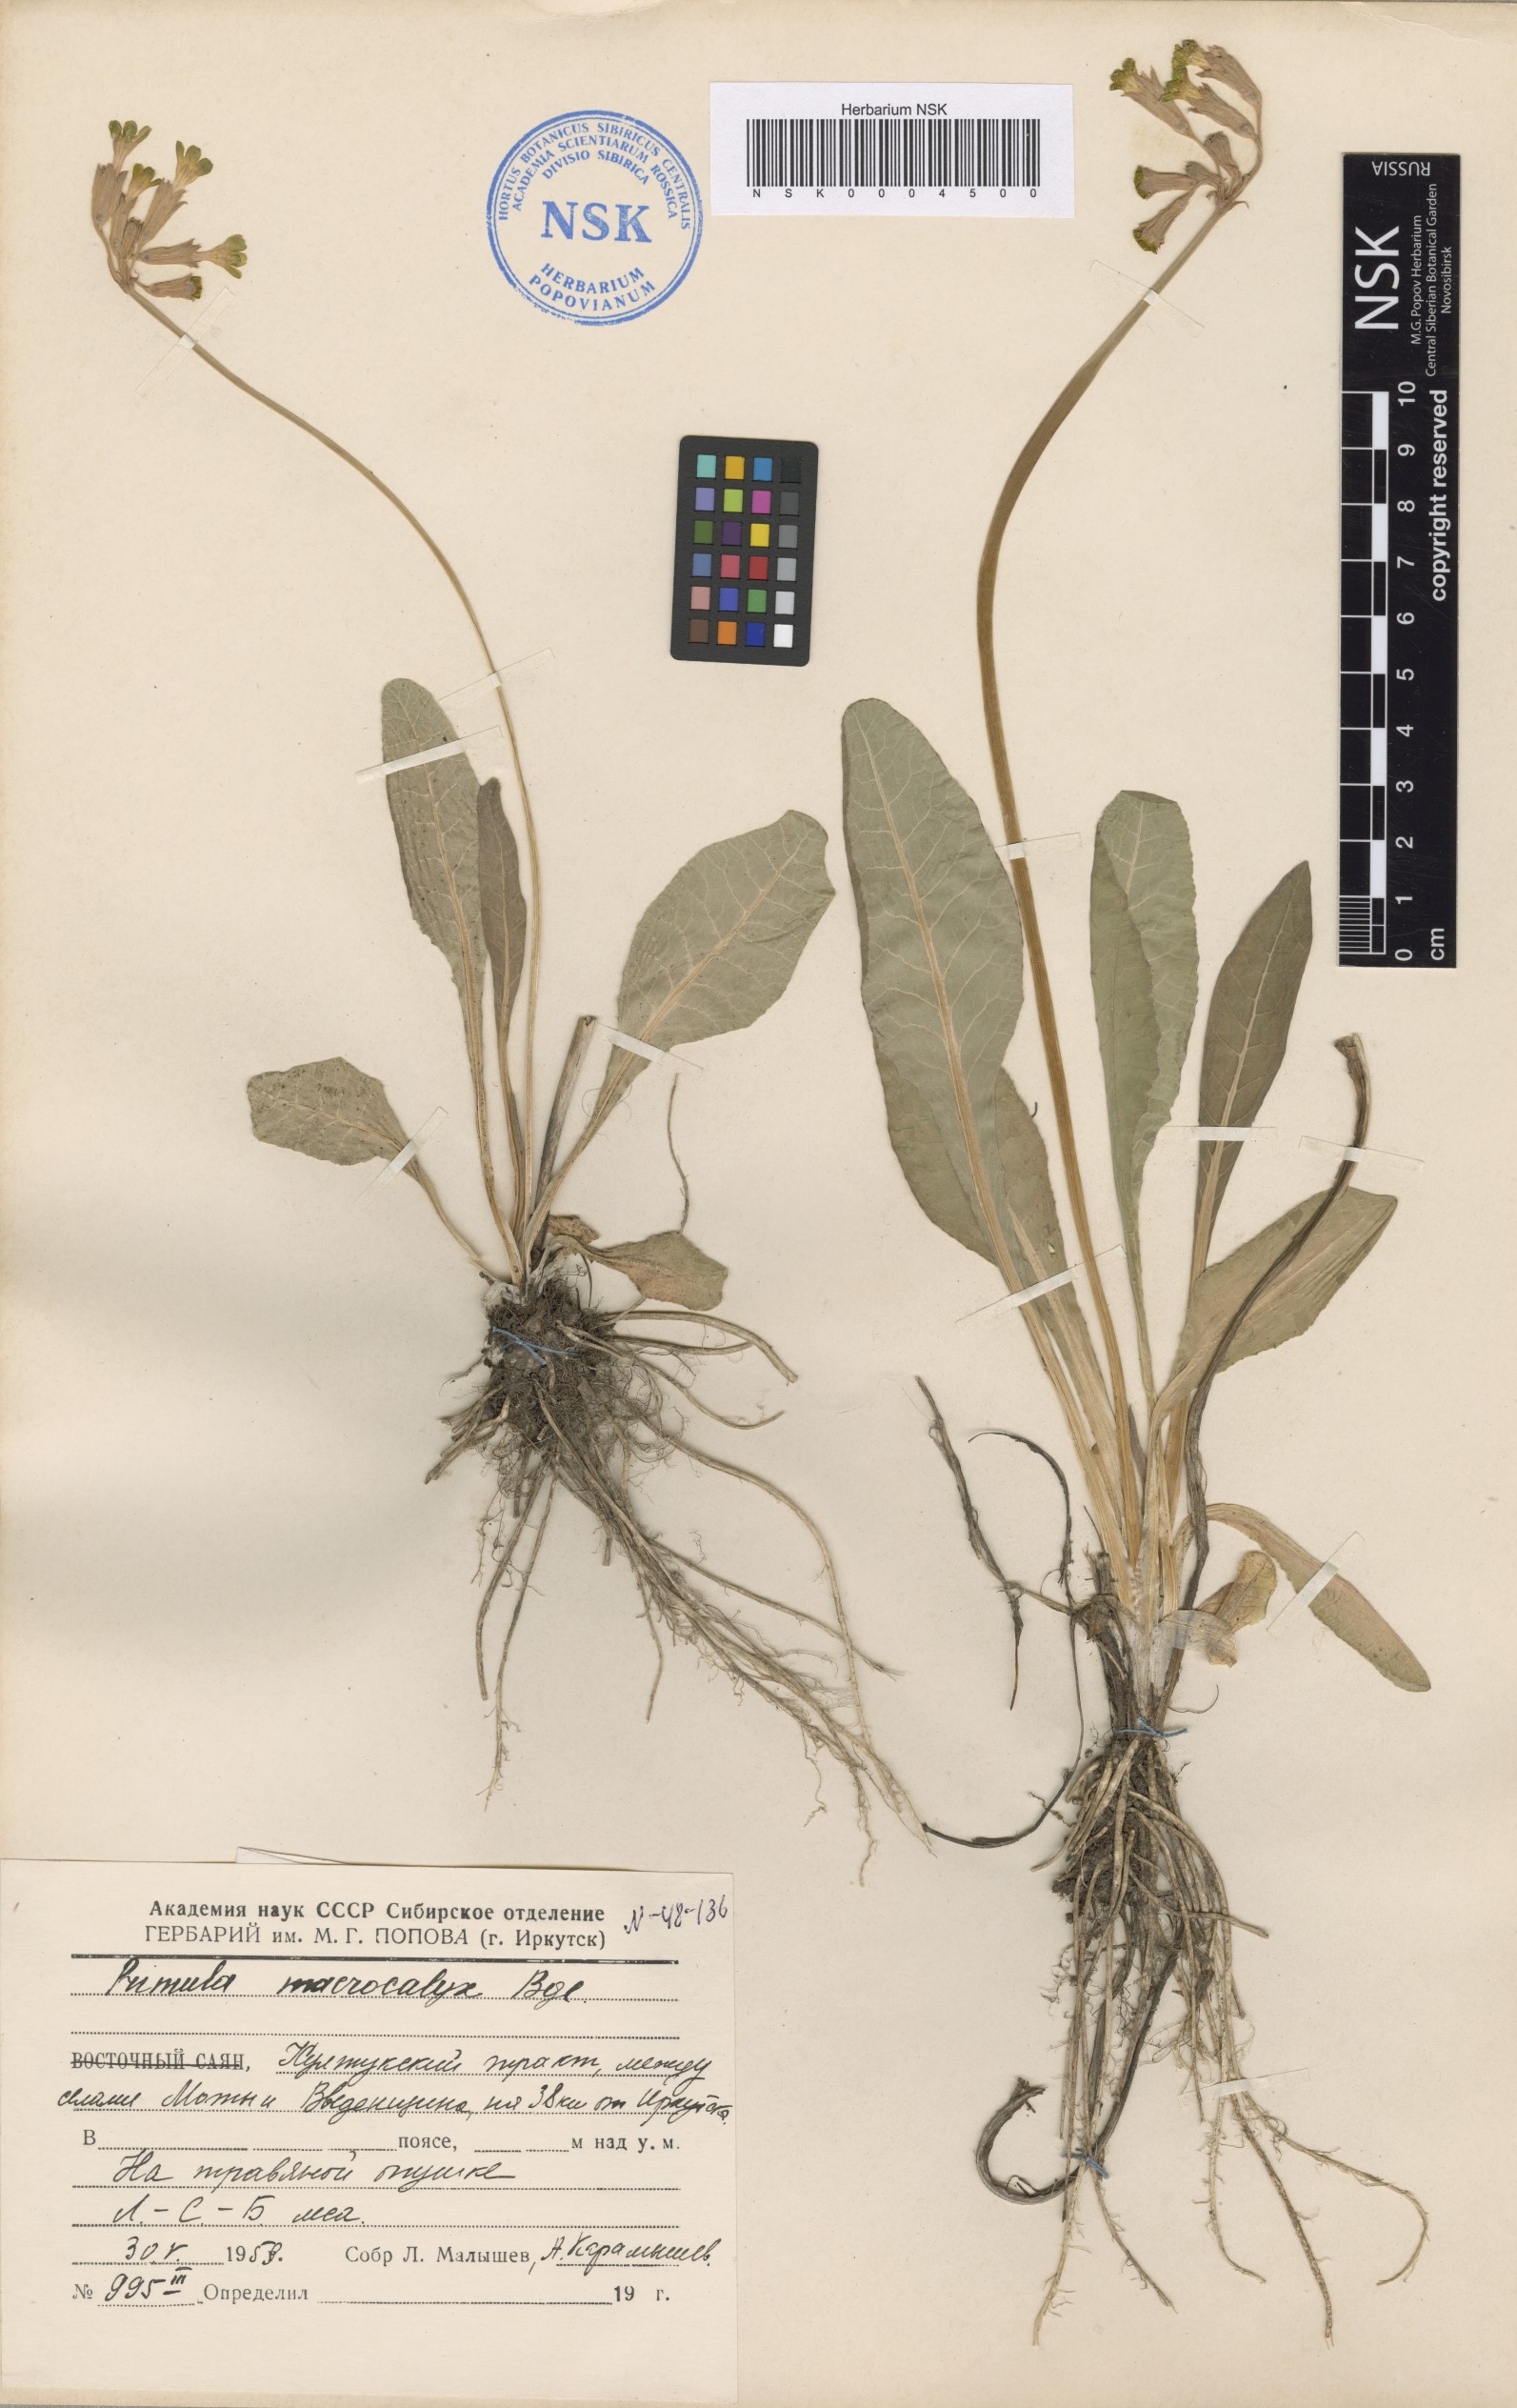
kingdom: Plantae
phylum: Tracheophyta
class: Magnoliopsida
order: Ericales
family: Primulaceae
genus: Primula
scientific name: Primula veris
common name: Cowslip
